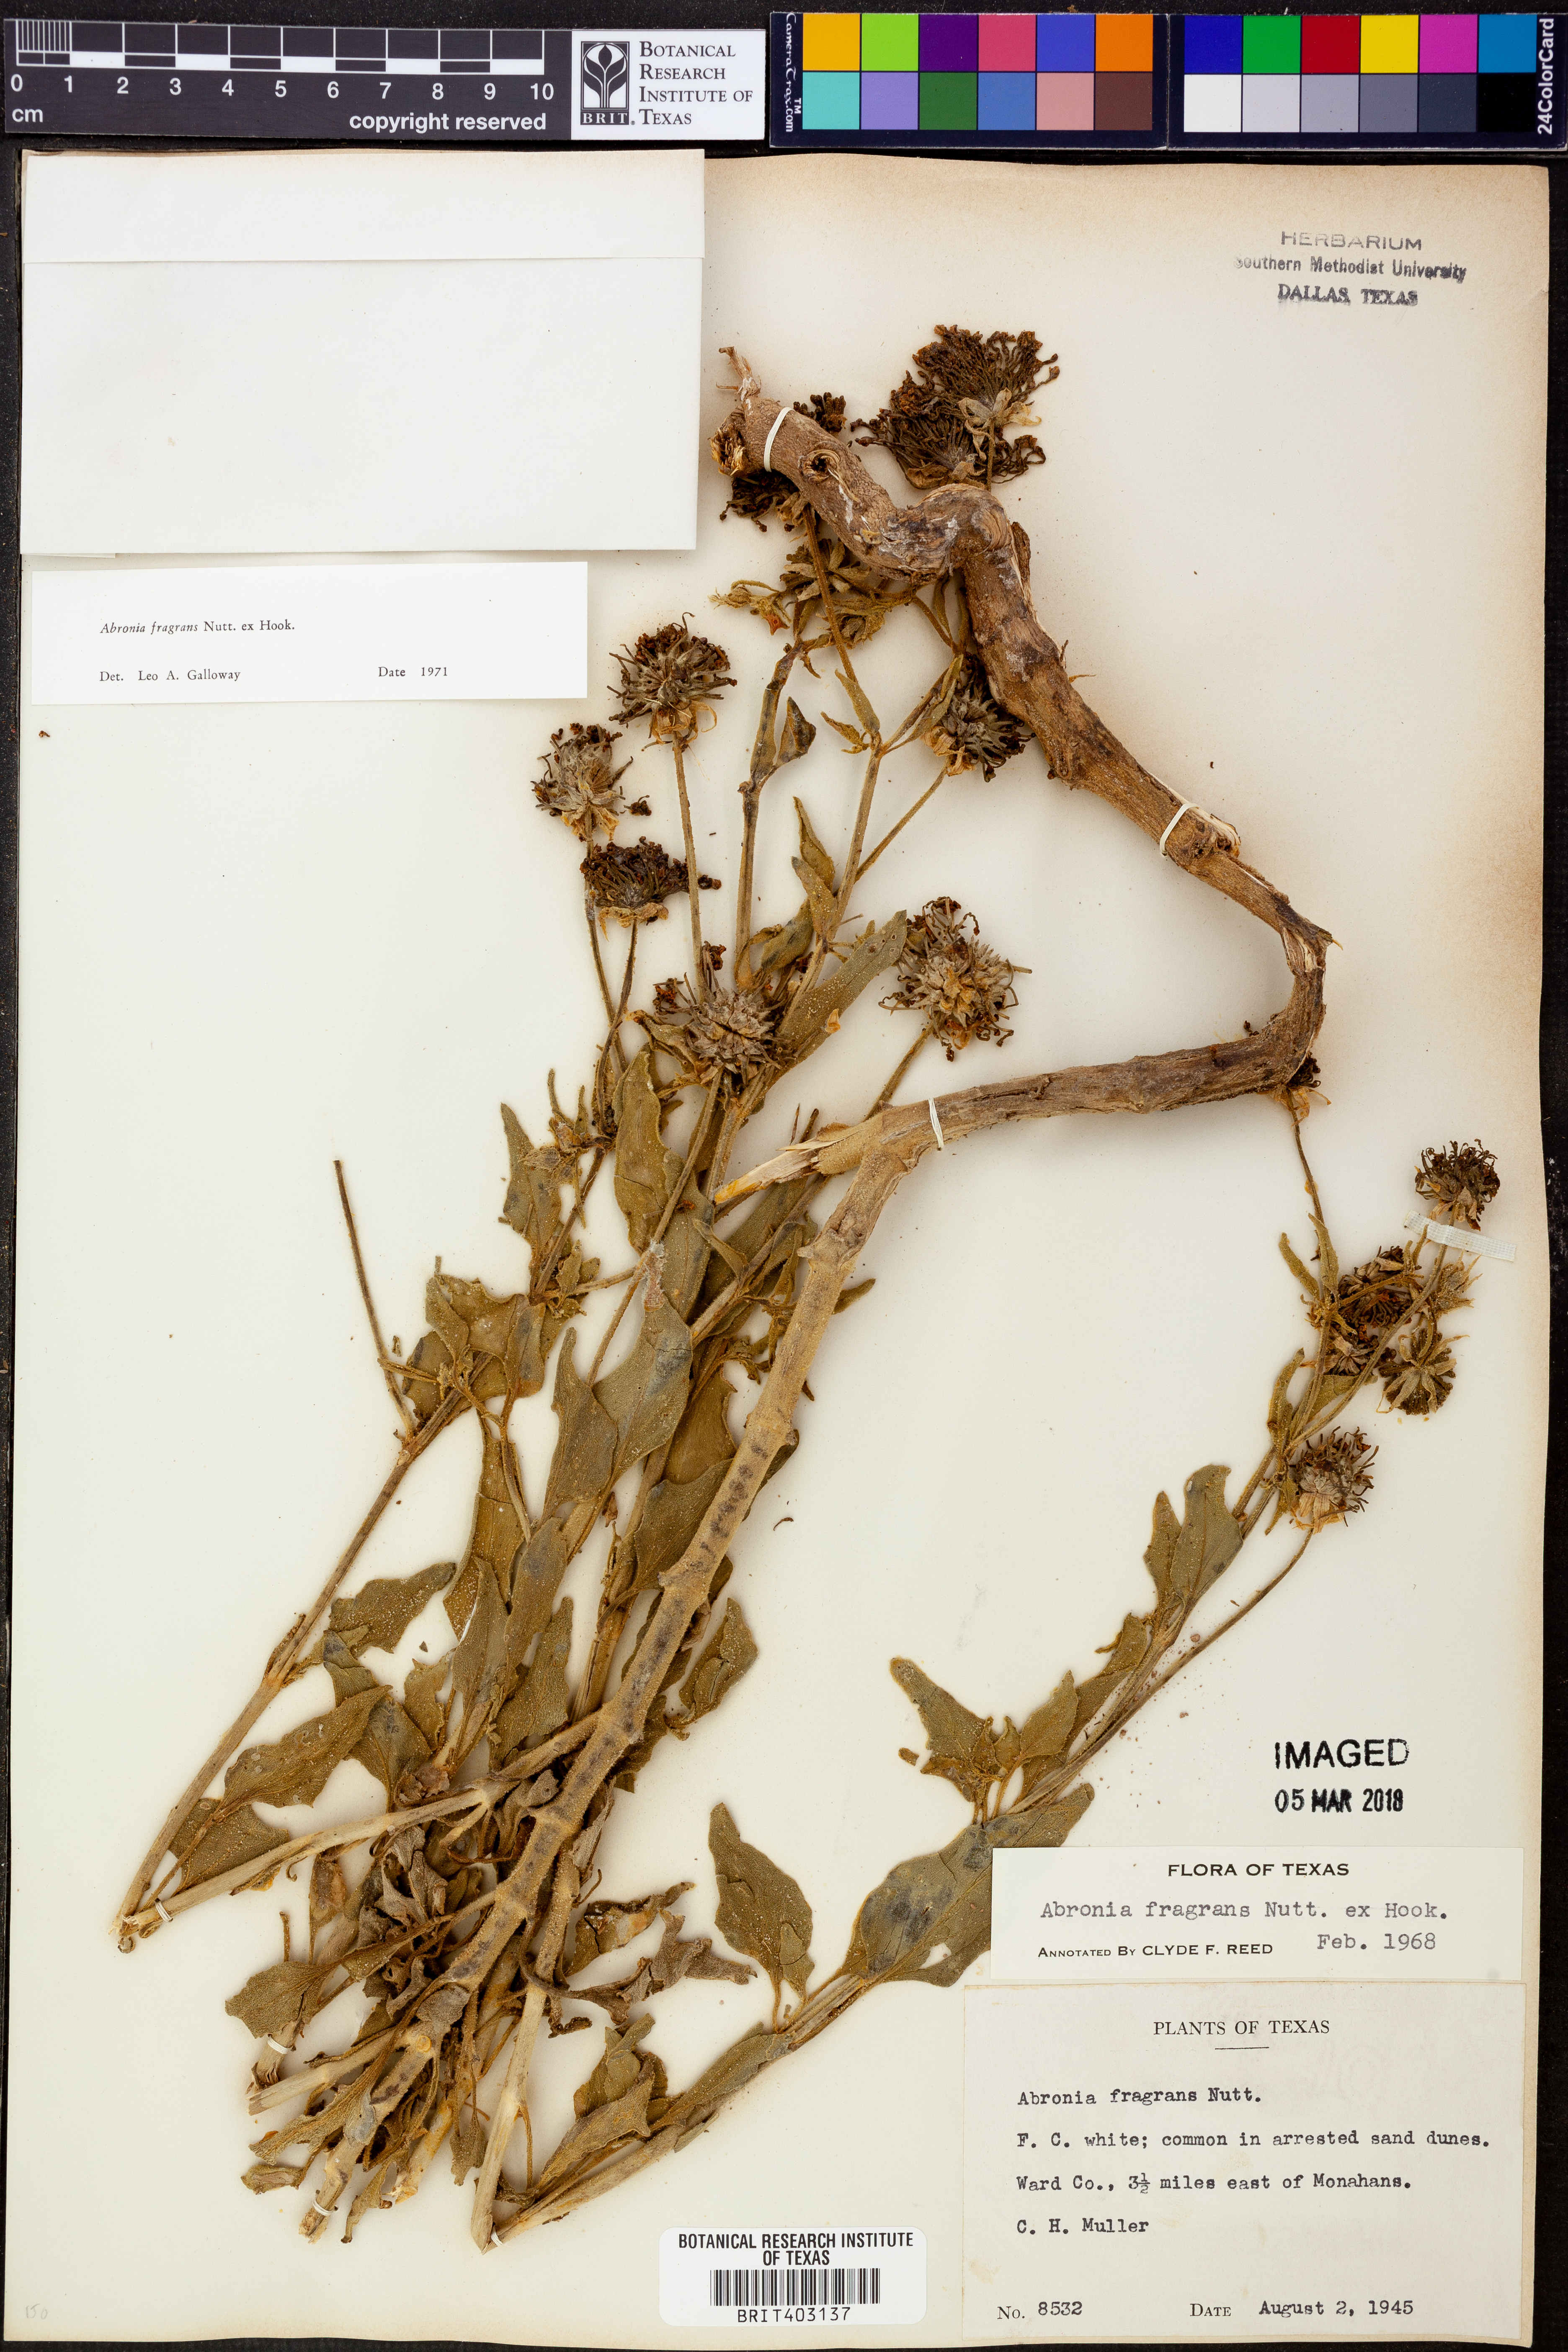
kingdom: Plantae
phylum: Tracheophyta
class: Magnoliopsida
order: Caryophyllales
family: Nyctaginaceae
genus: Abronia
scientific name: Abronia fragrans
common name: Fragrant sand-verbena
